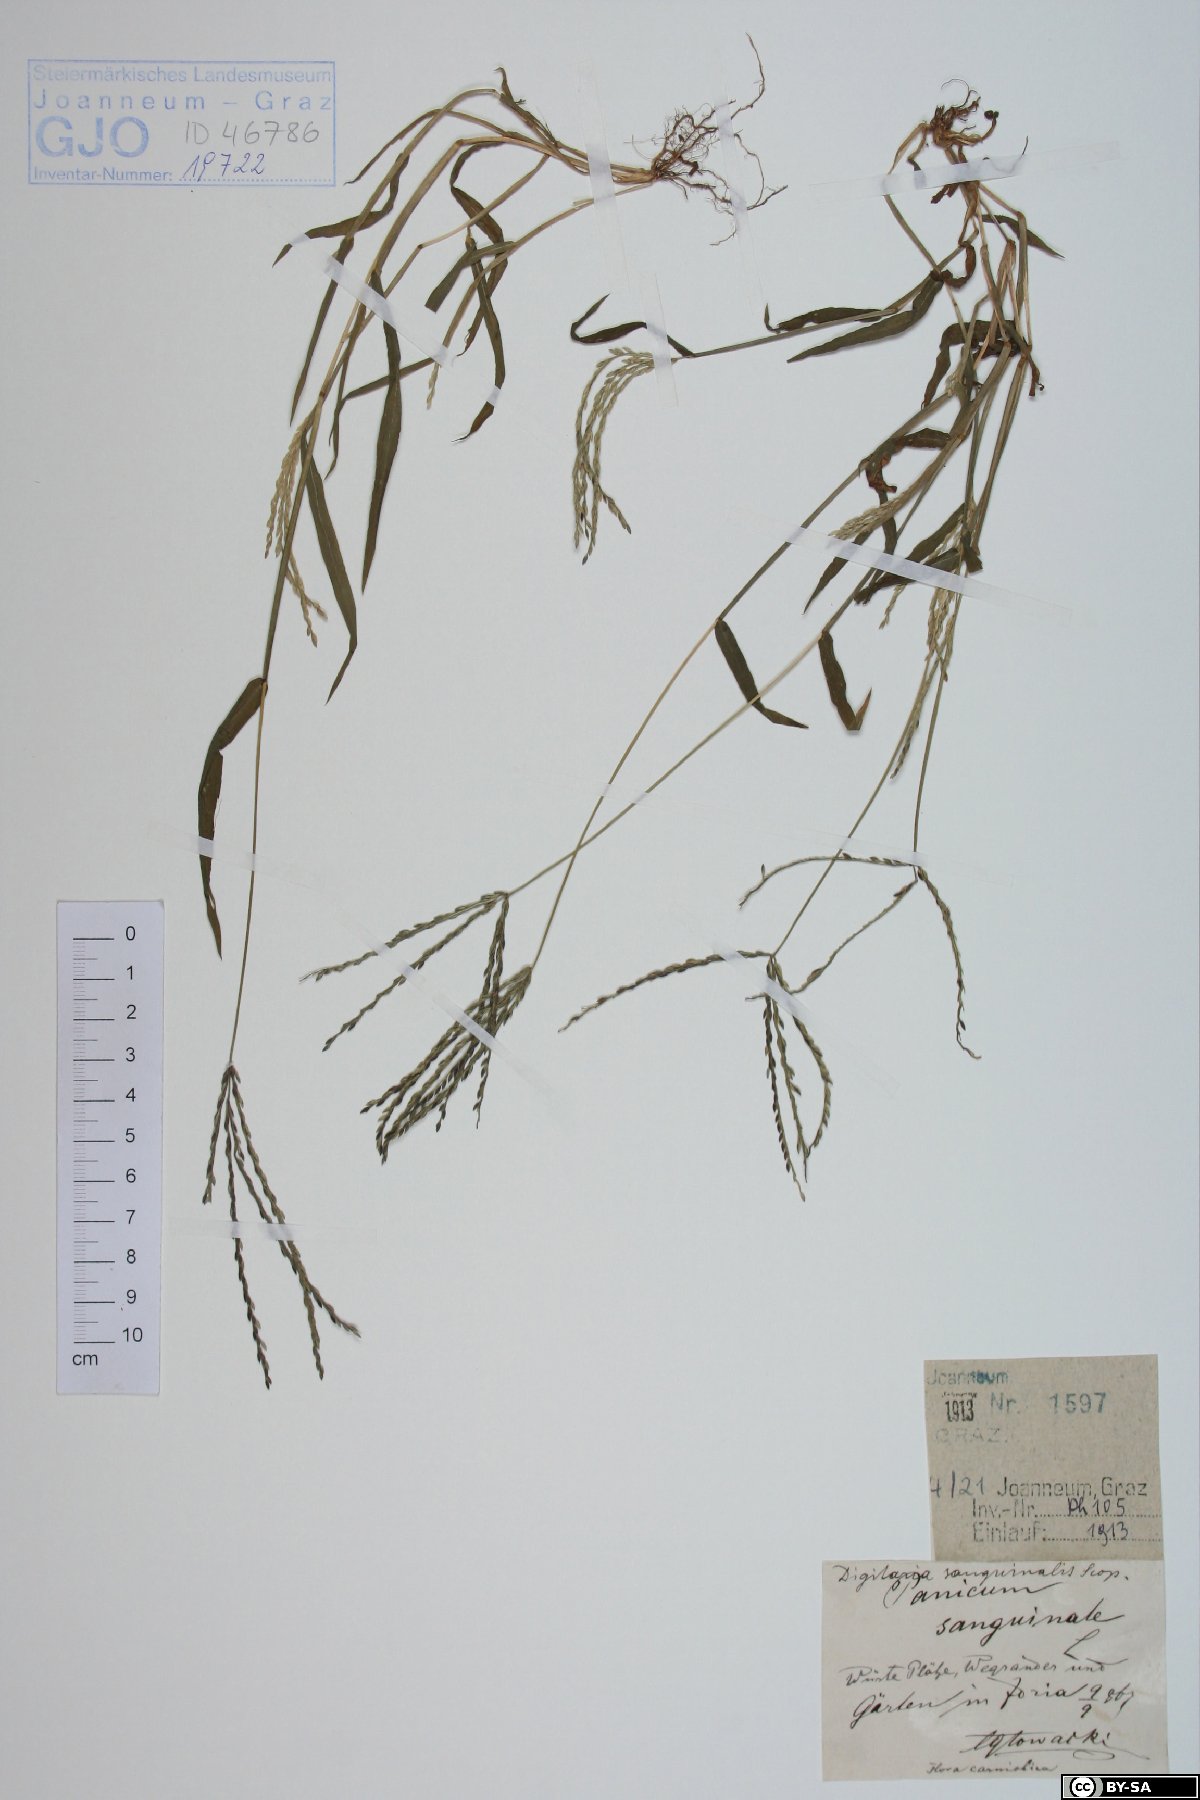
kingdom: Plantae
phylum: Tracheophyta
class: Liliopsida
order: Poales
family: Poaceae
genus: Digitaria
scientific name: Digitaria sanguinalis
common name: Hairy crabgrass
